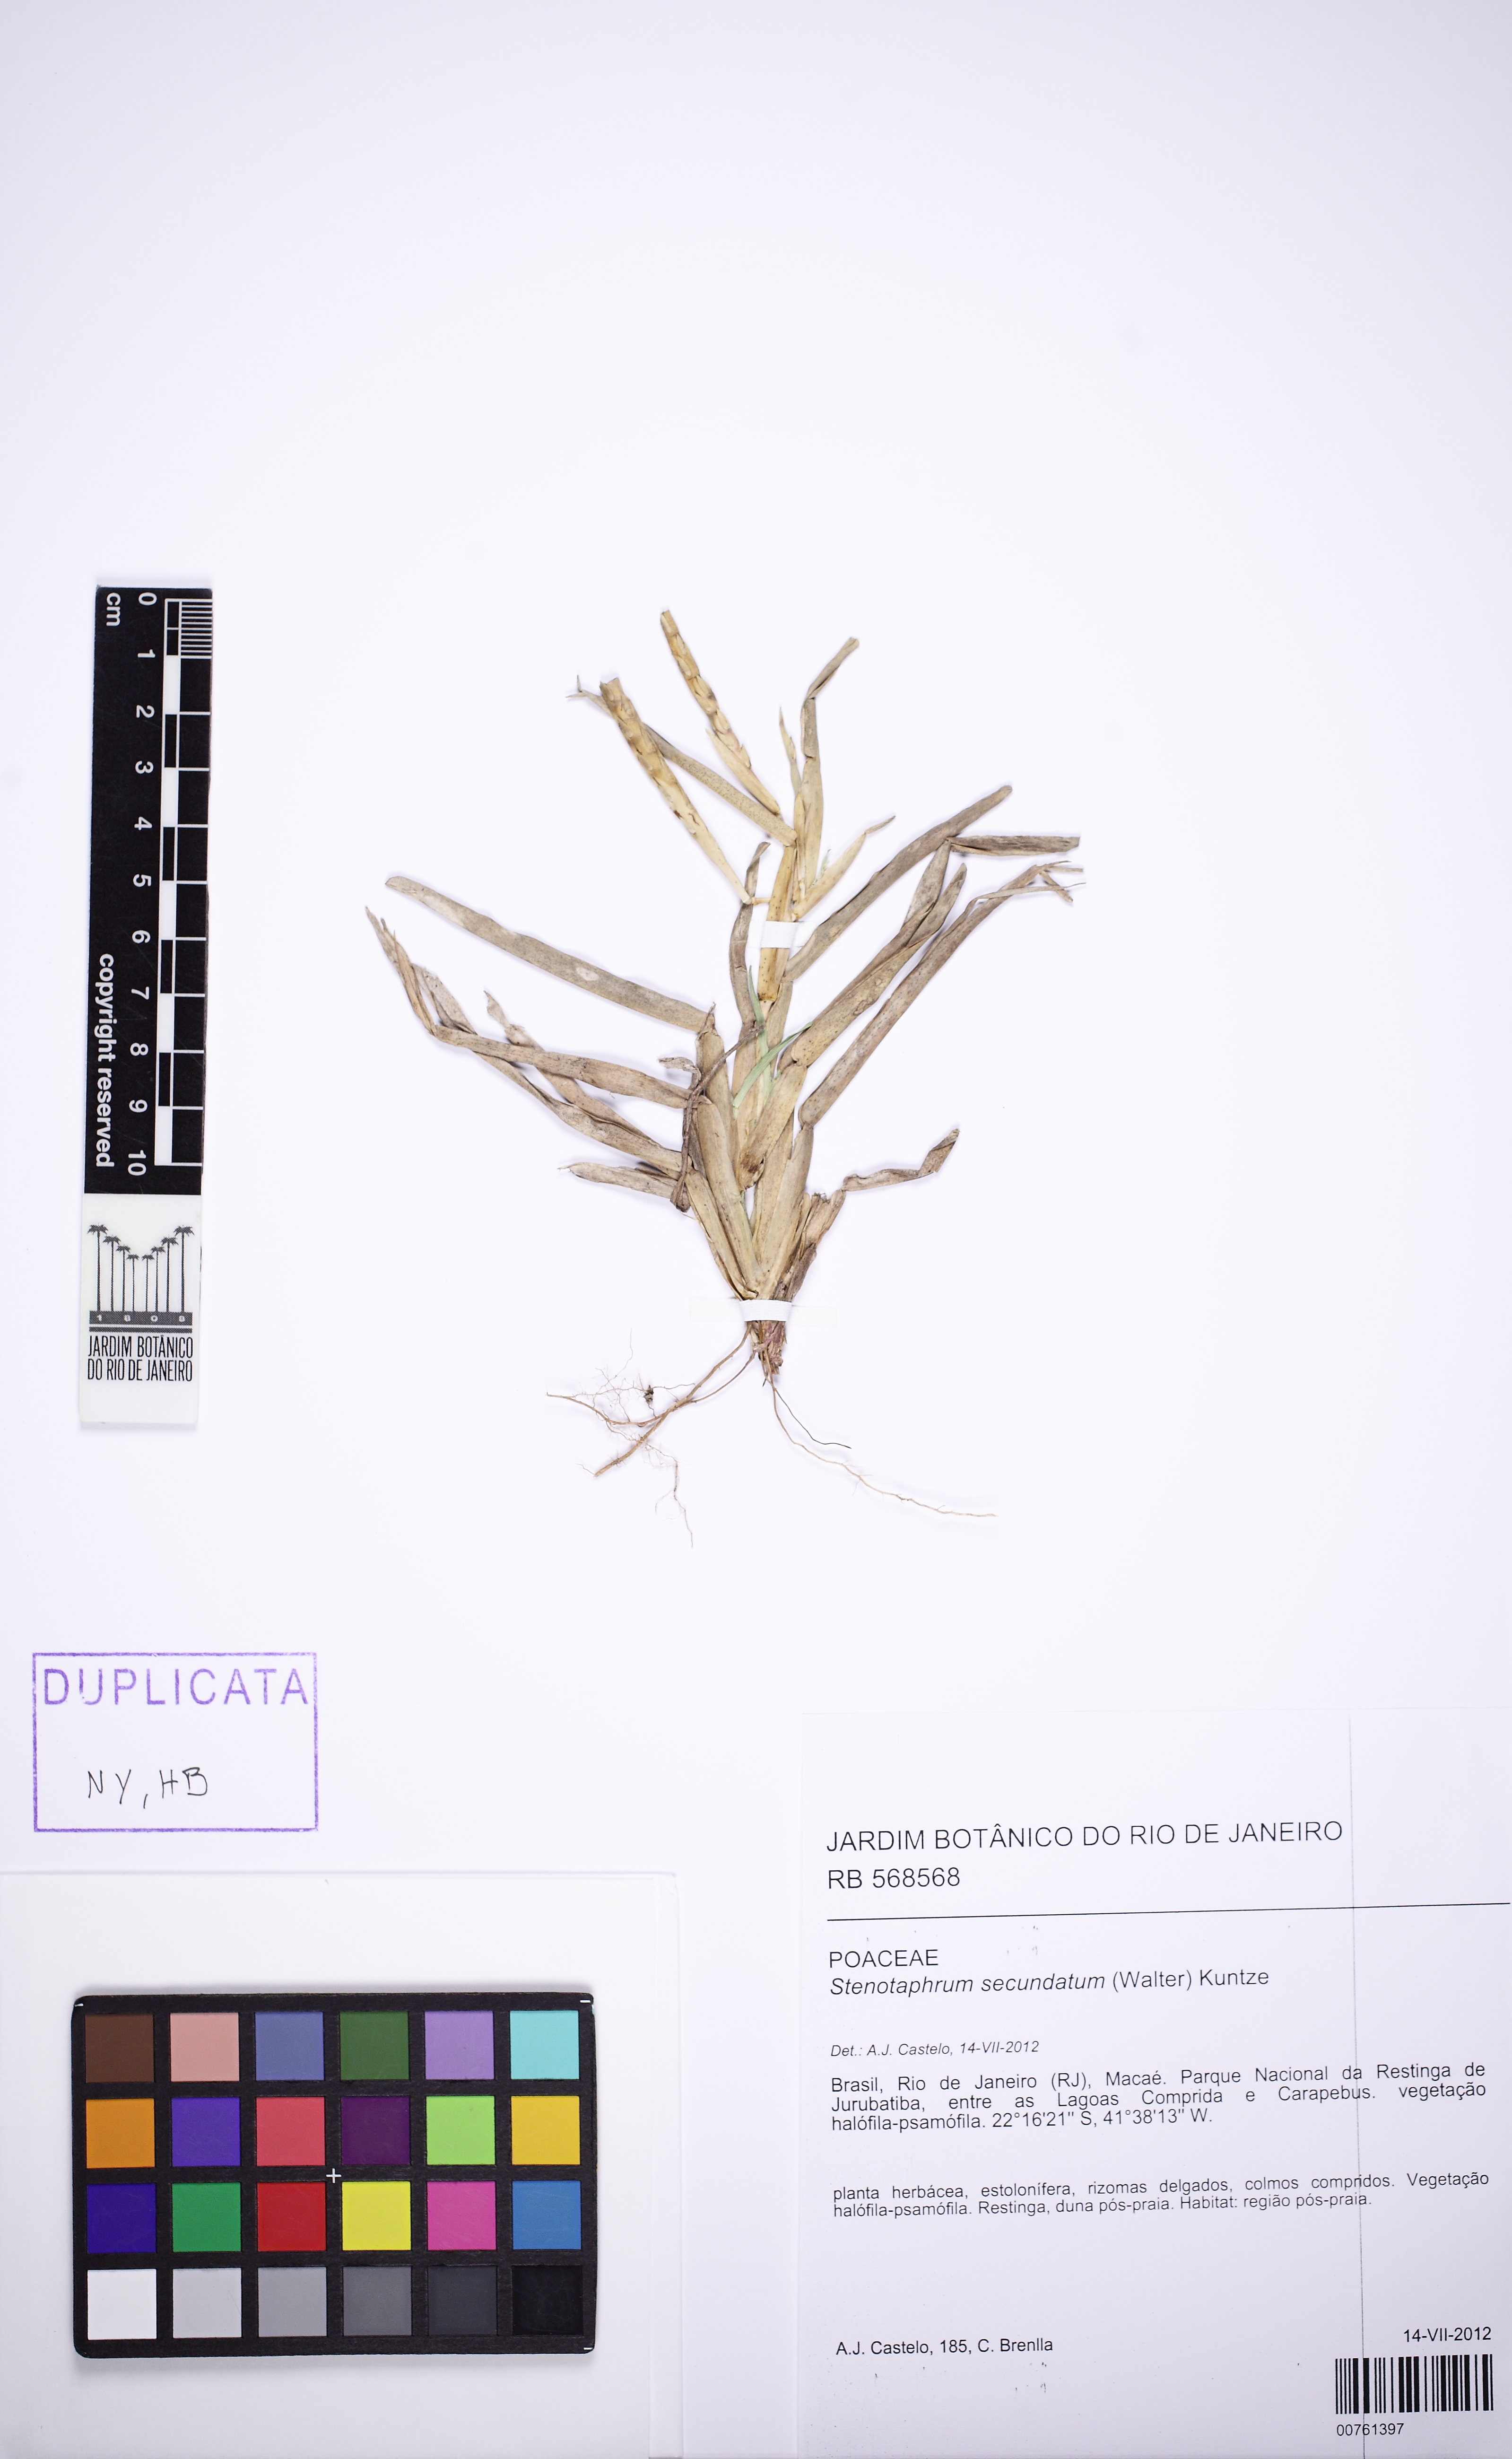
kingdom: Plantae
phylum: Tracheophyta
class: Liliopsida
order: Poales
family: Poaceae
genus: Stenotaphrum
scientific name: Stenotaphrum secundatum
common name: St. augustine grass
